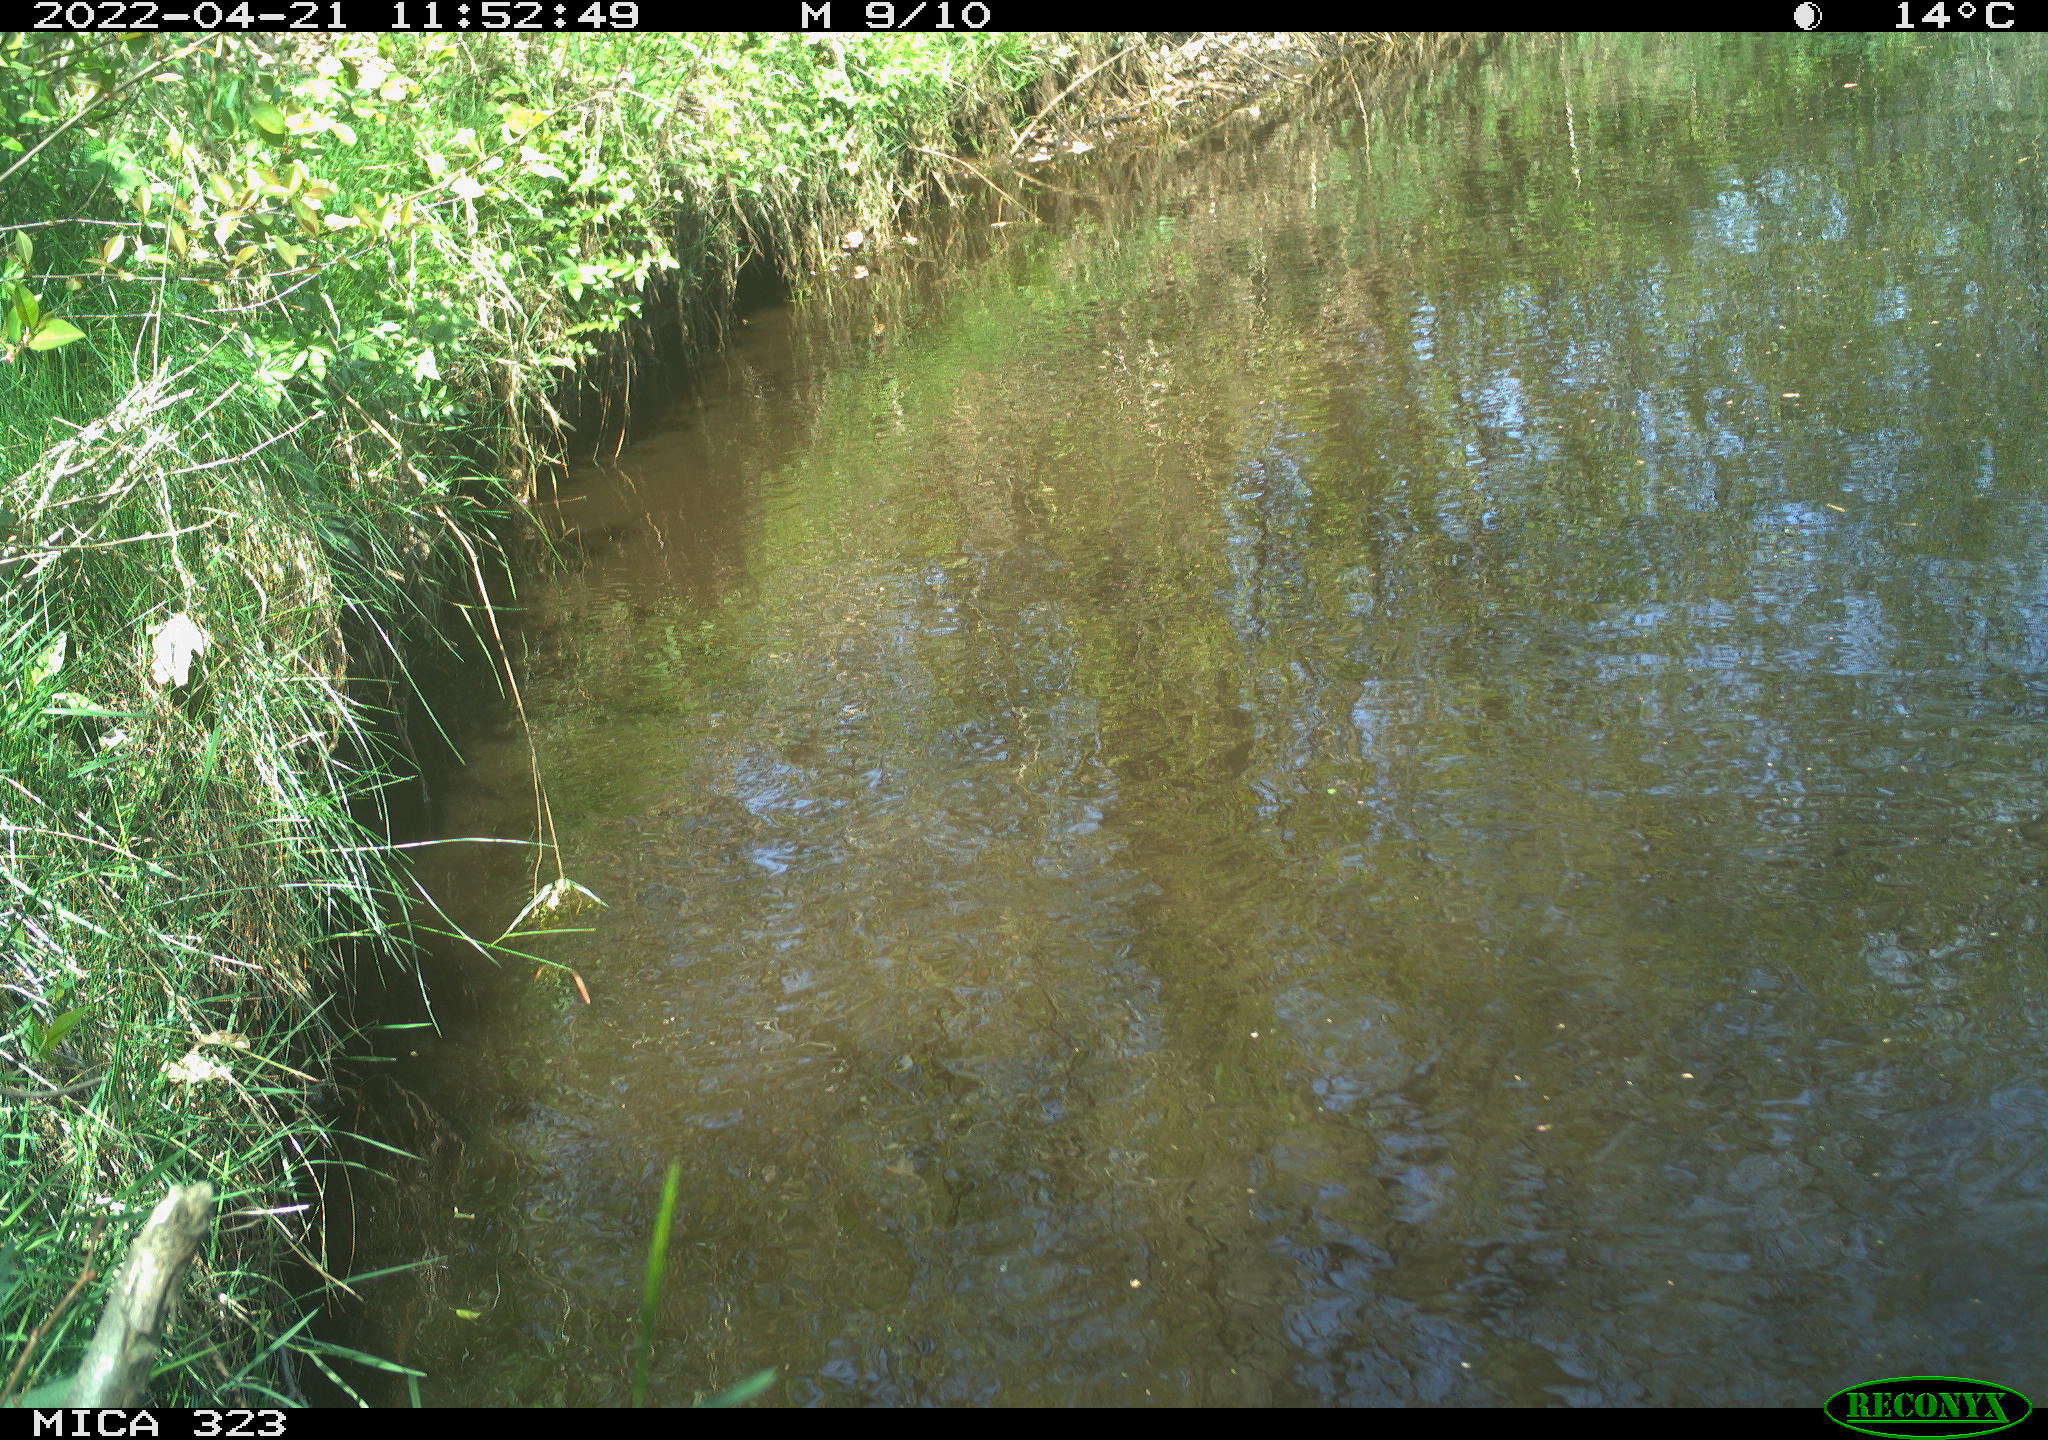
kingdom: Animalia
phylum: Chordata
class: Aves
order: Anseriformes
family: Anatidae
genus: Anas
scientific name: Anas platyrhynchos
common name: Mallard
